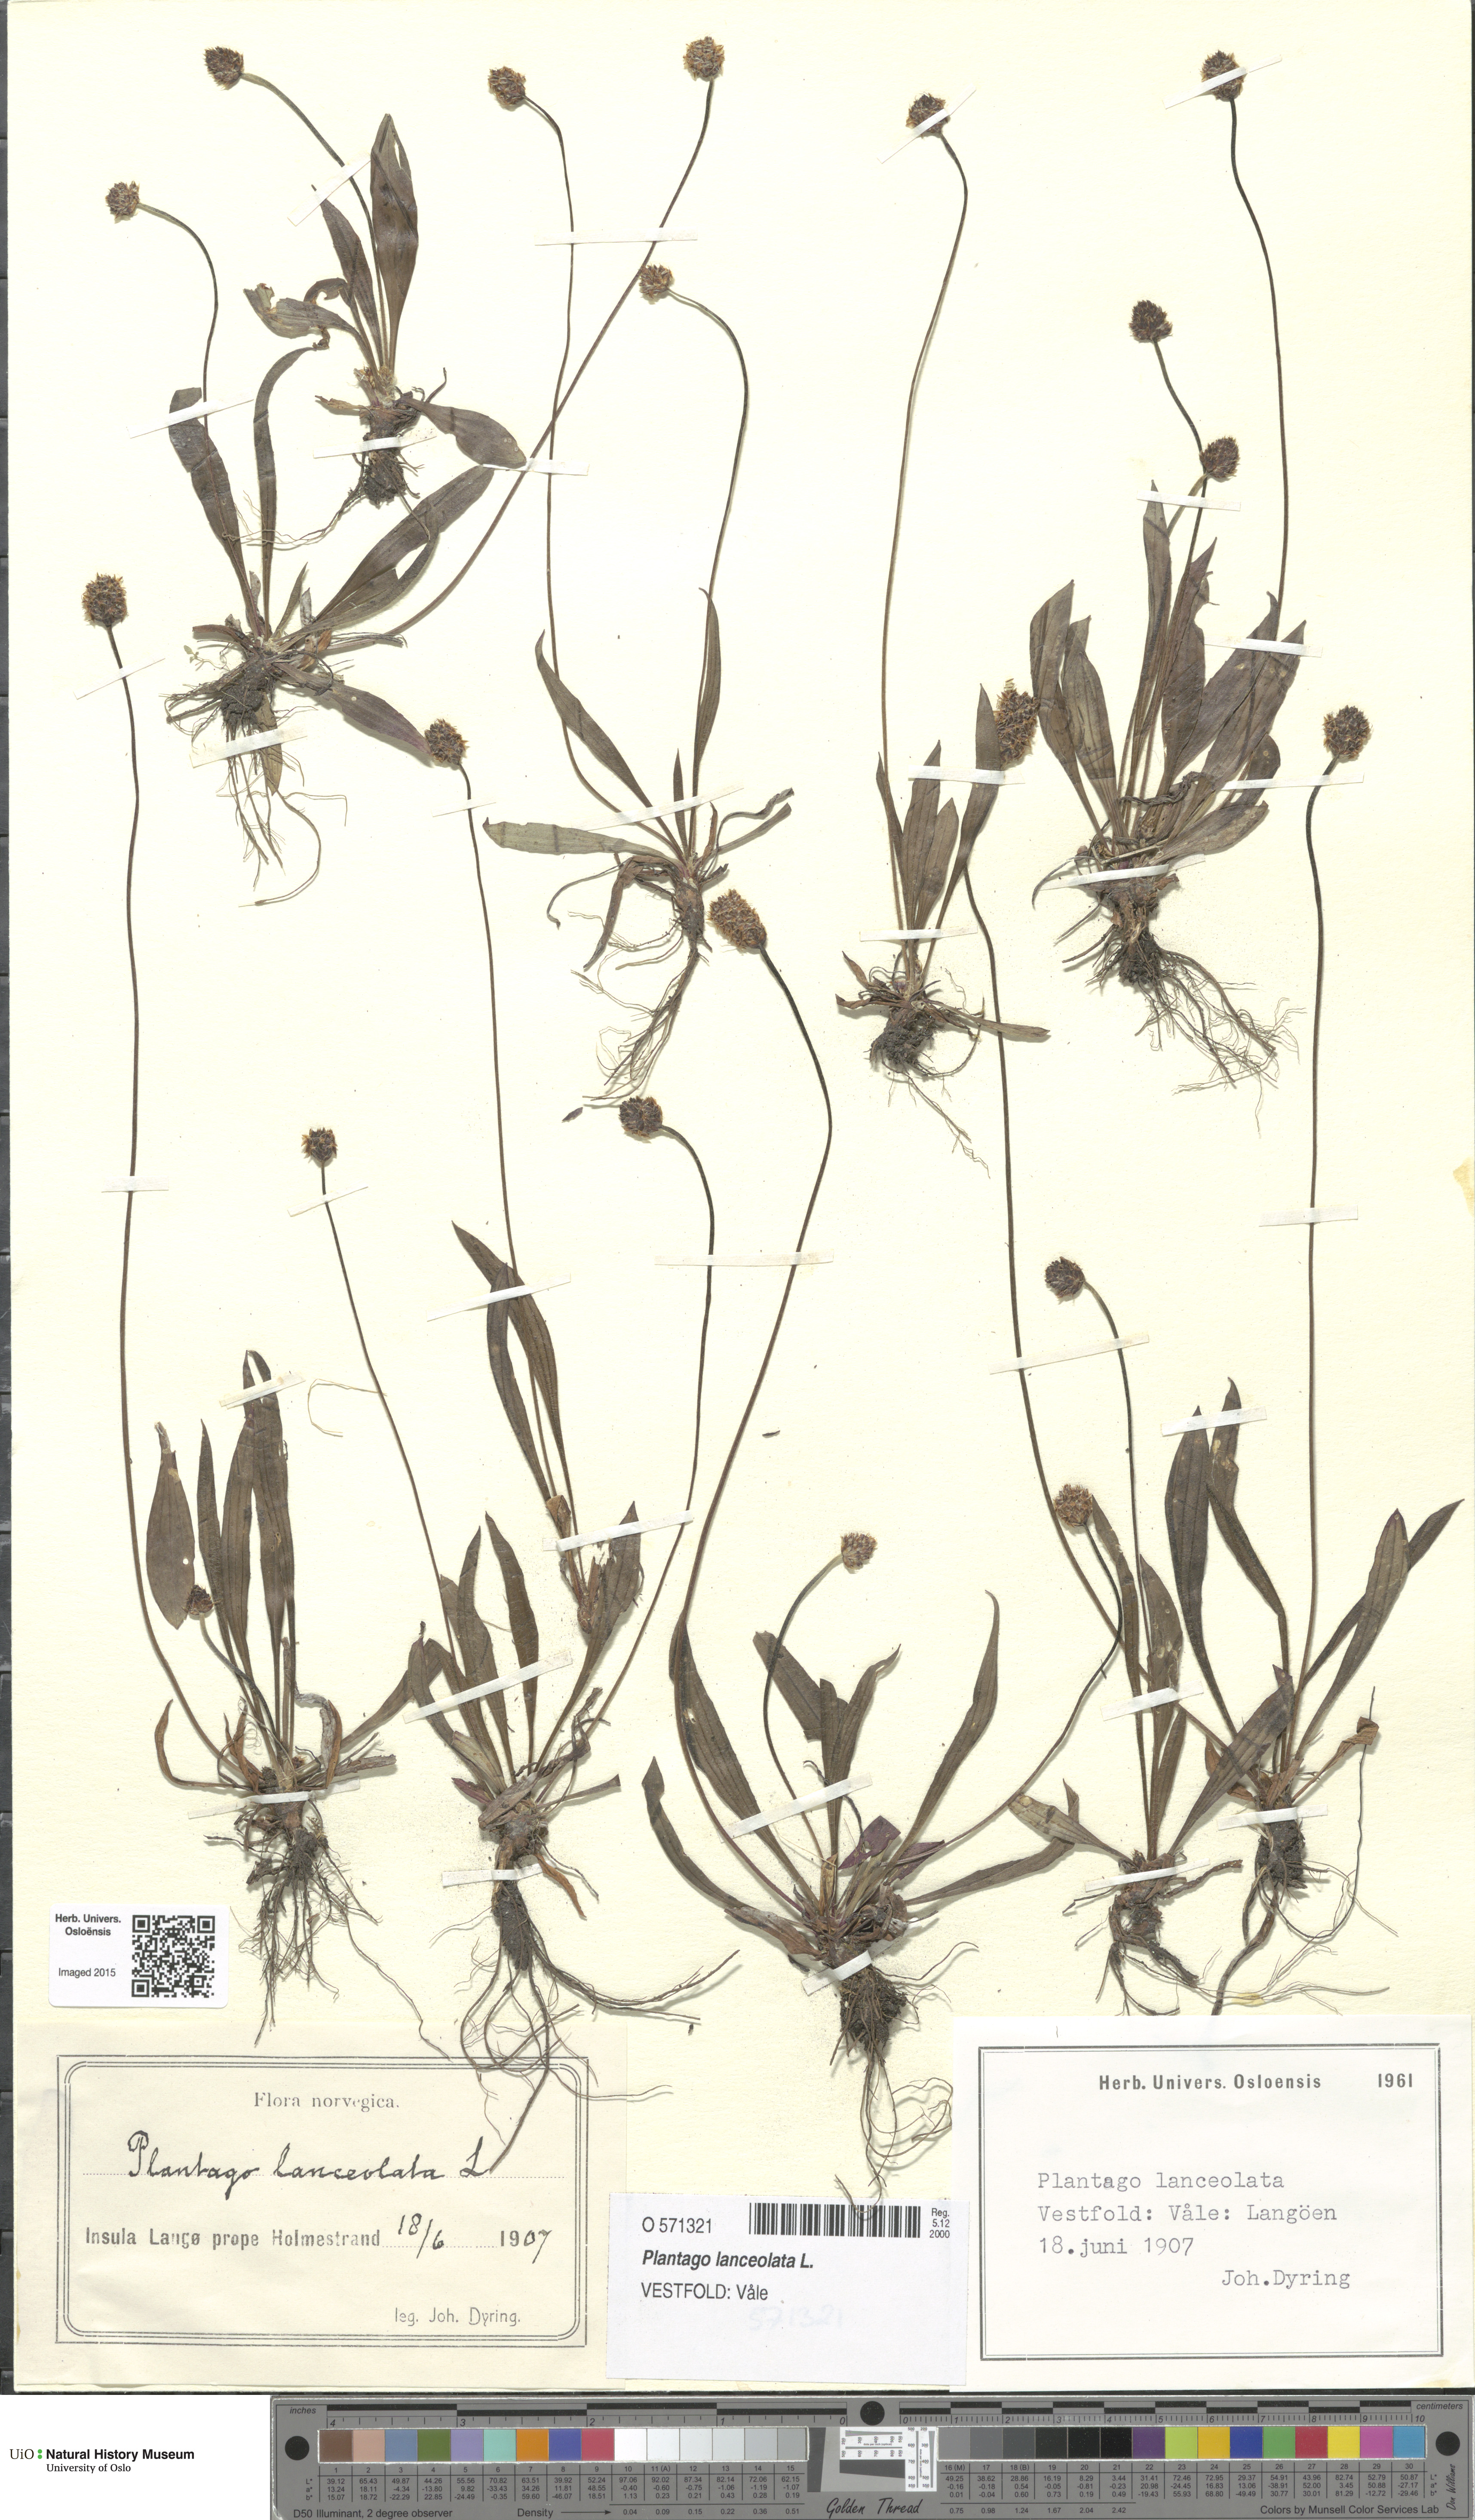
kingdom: Plantae
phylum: Tracheophyta
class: Magnoliopsida
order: Lamiales
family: Plantaginaceae
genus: Plantago
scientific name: Plantago lanceolata
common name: Ribwort plantain
